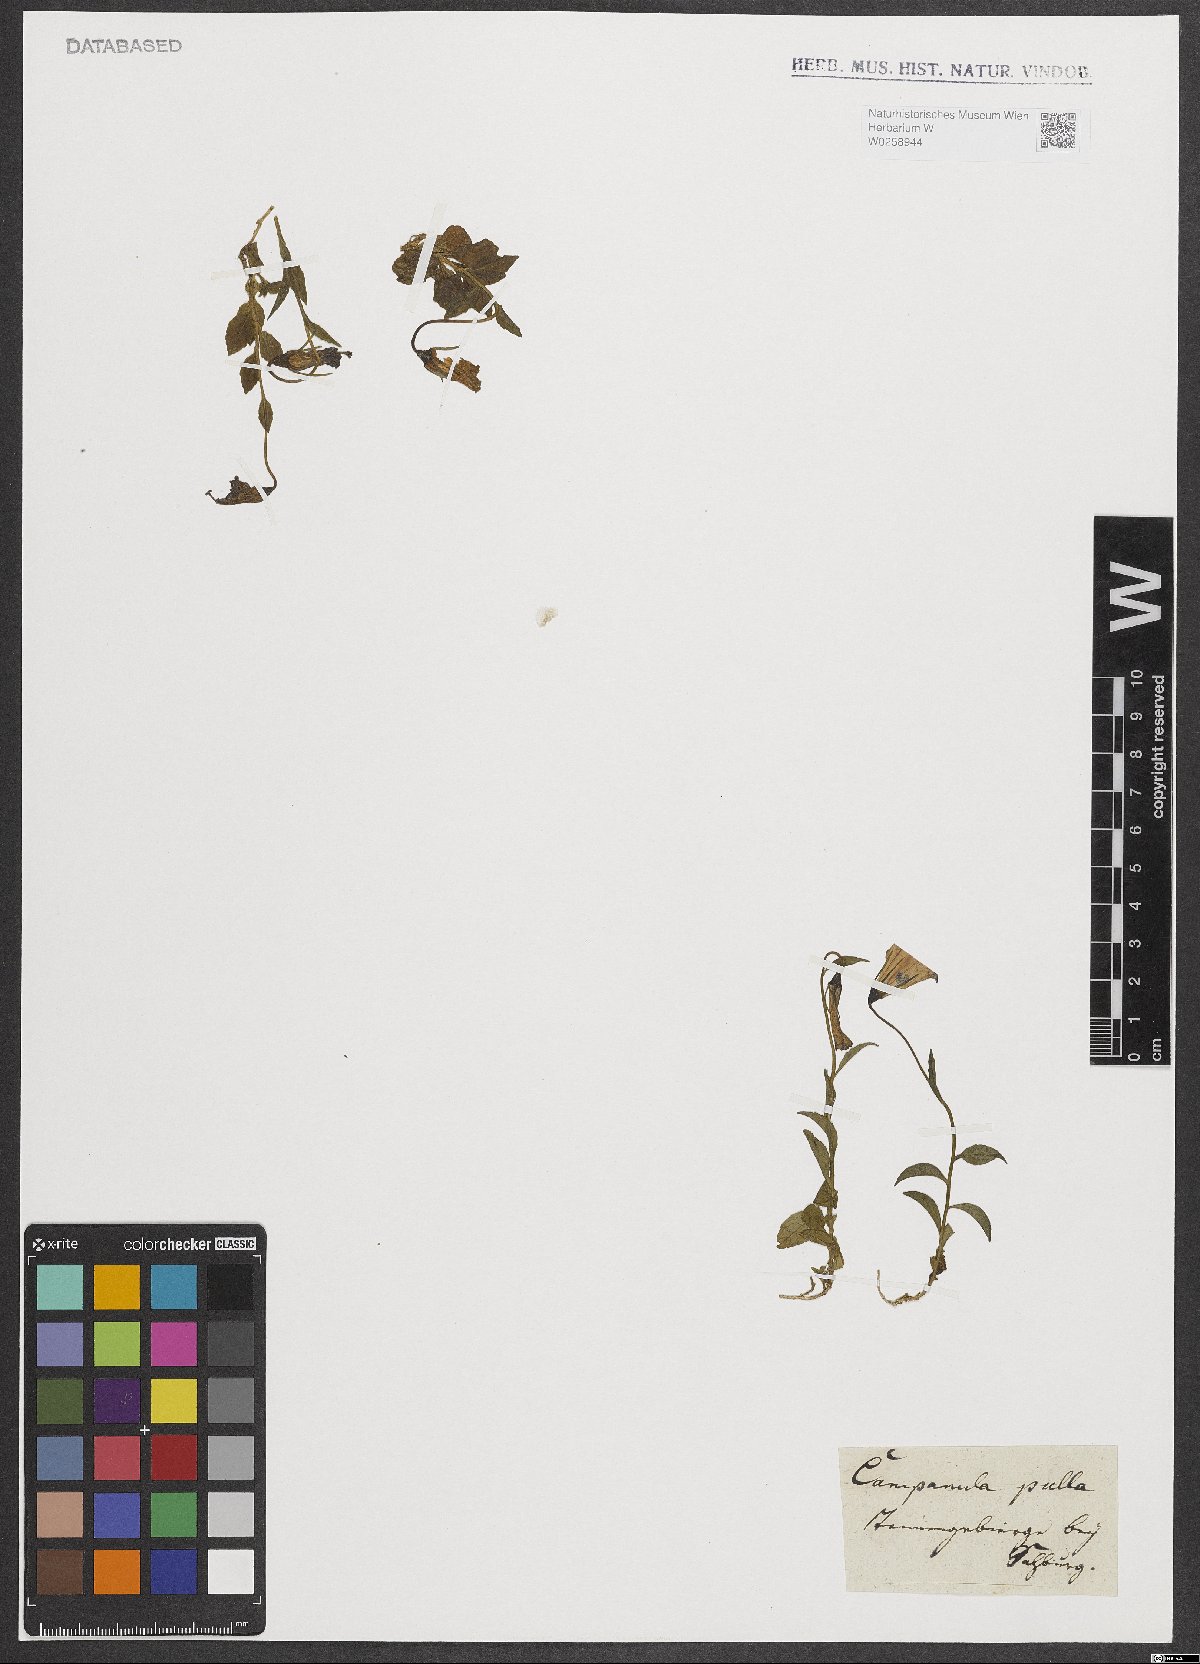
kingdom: Plantae
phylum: Tracheophyta
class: Magnoliopsida
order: Asterales
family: Campanulaceae
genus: Campanula
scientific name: Campanula pulla
